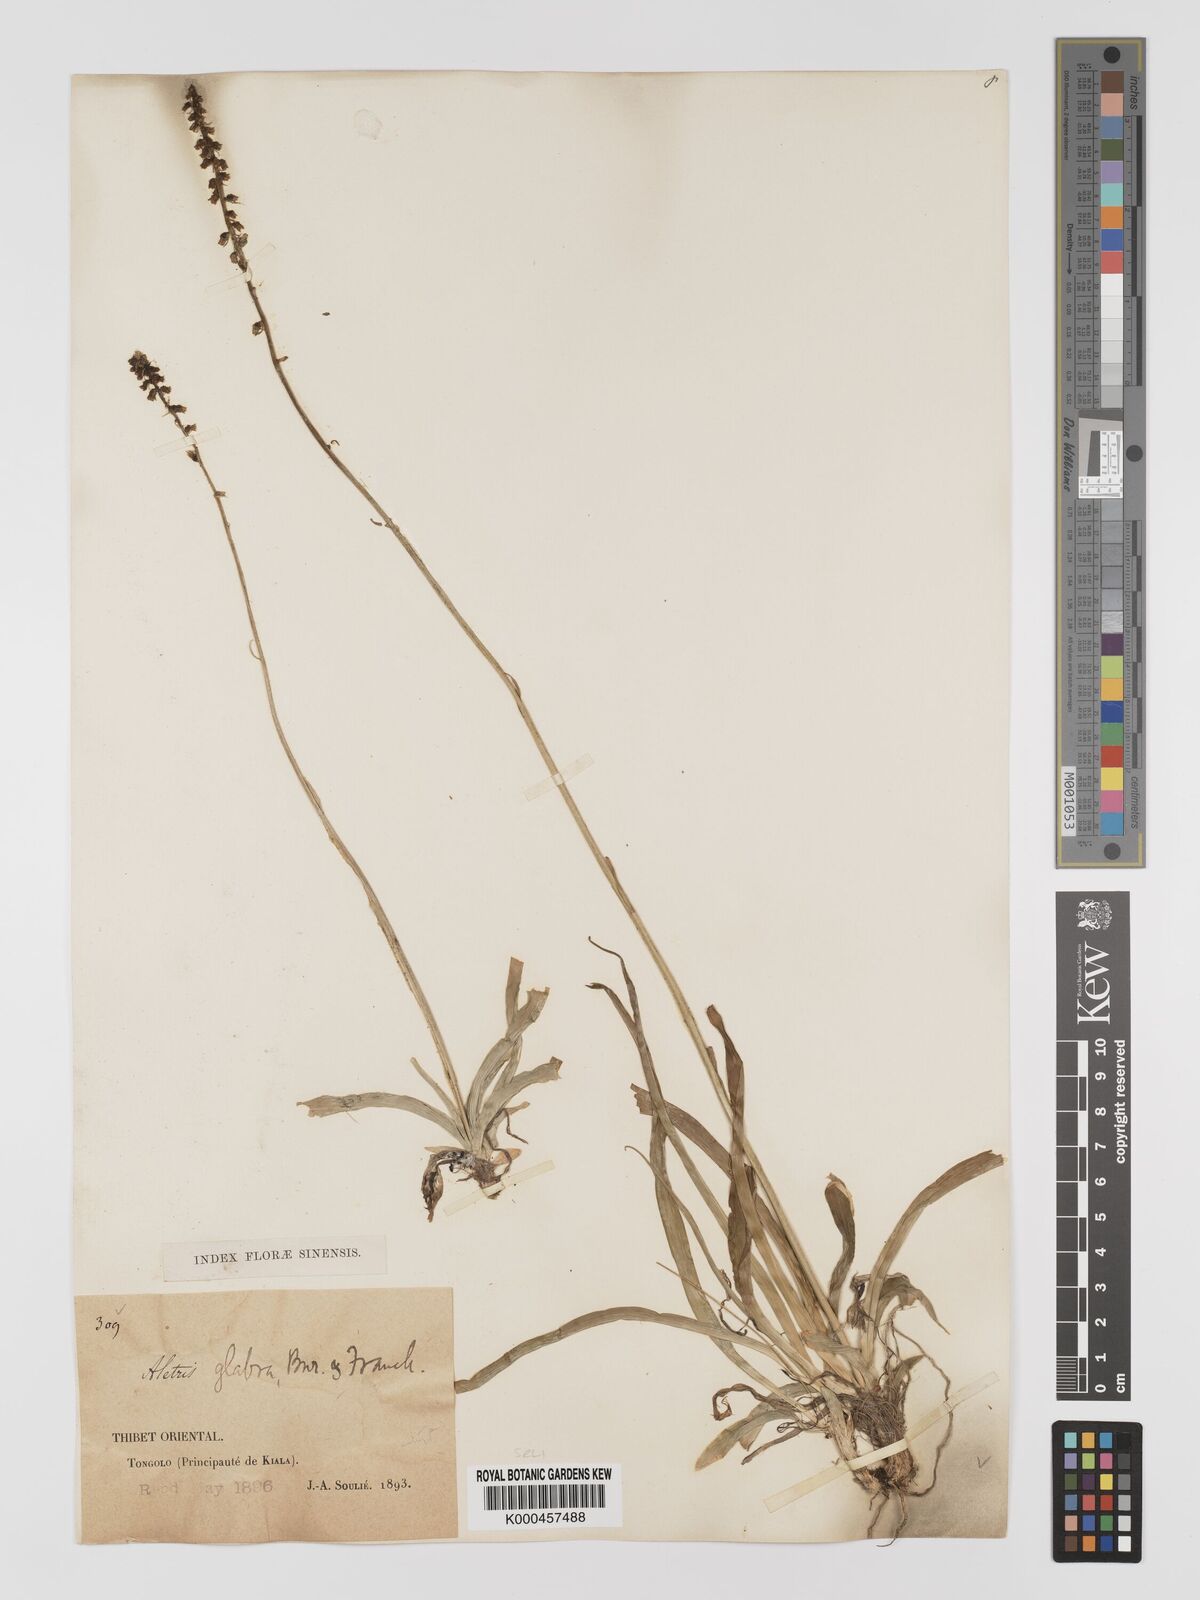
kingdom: Plantae
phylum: Tracheophyta
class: Liliopsida
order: Dioscoreales
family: Nartheciaceae
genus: Aletris
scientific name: Aletris glabra
